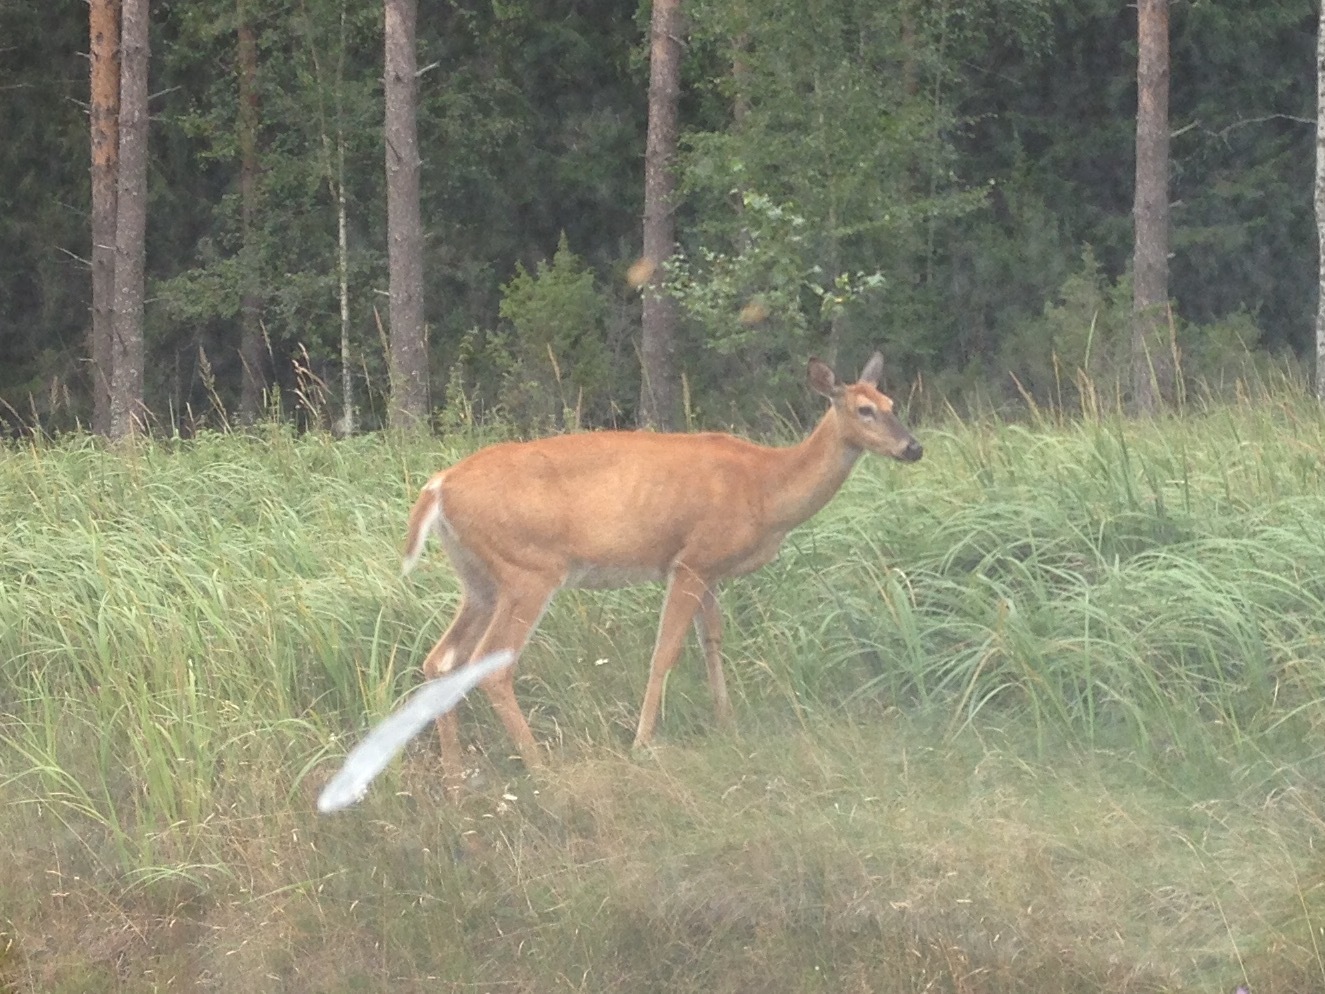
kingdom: Animalia
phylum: Chordata
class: Mammalia
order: Artiodactyla
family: Cervidae
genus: Odocoileus
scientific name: Odocoileus virginianus
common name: White-tailed deer
